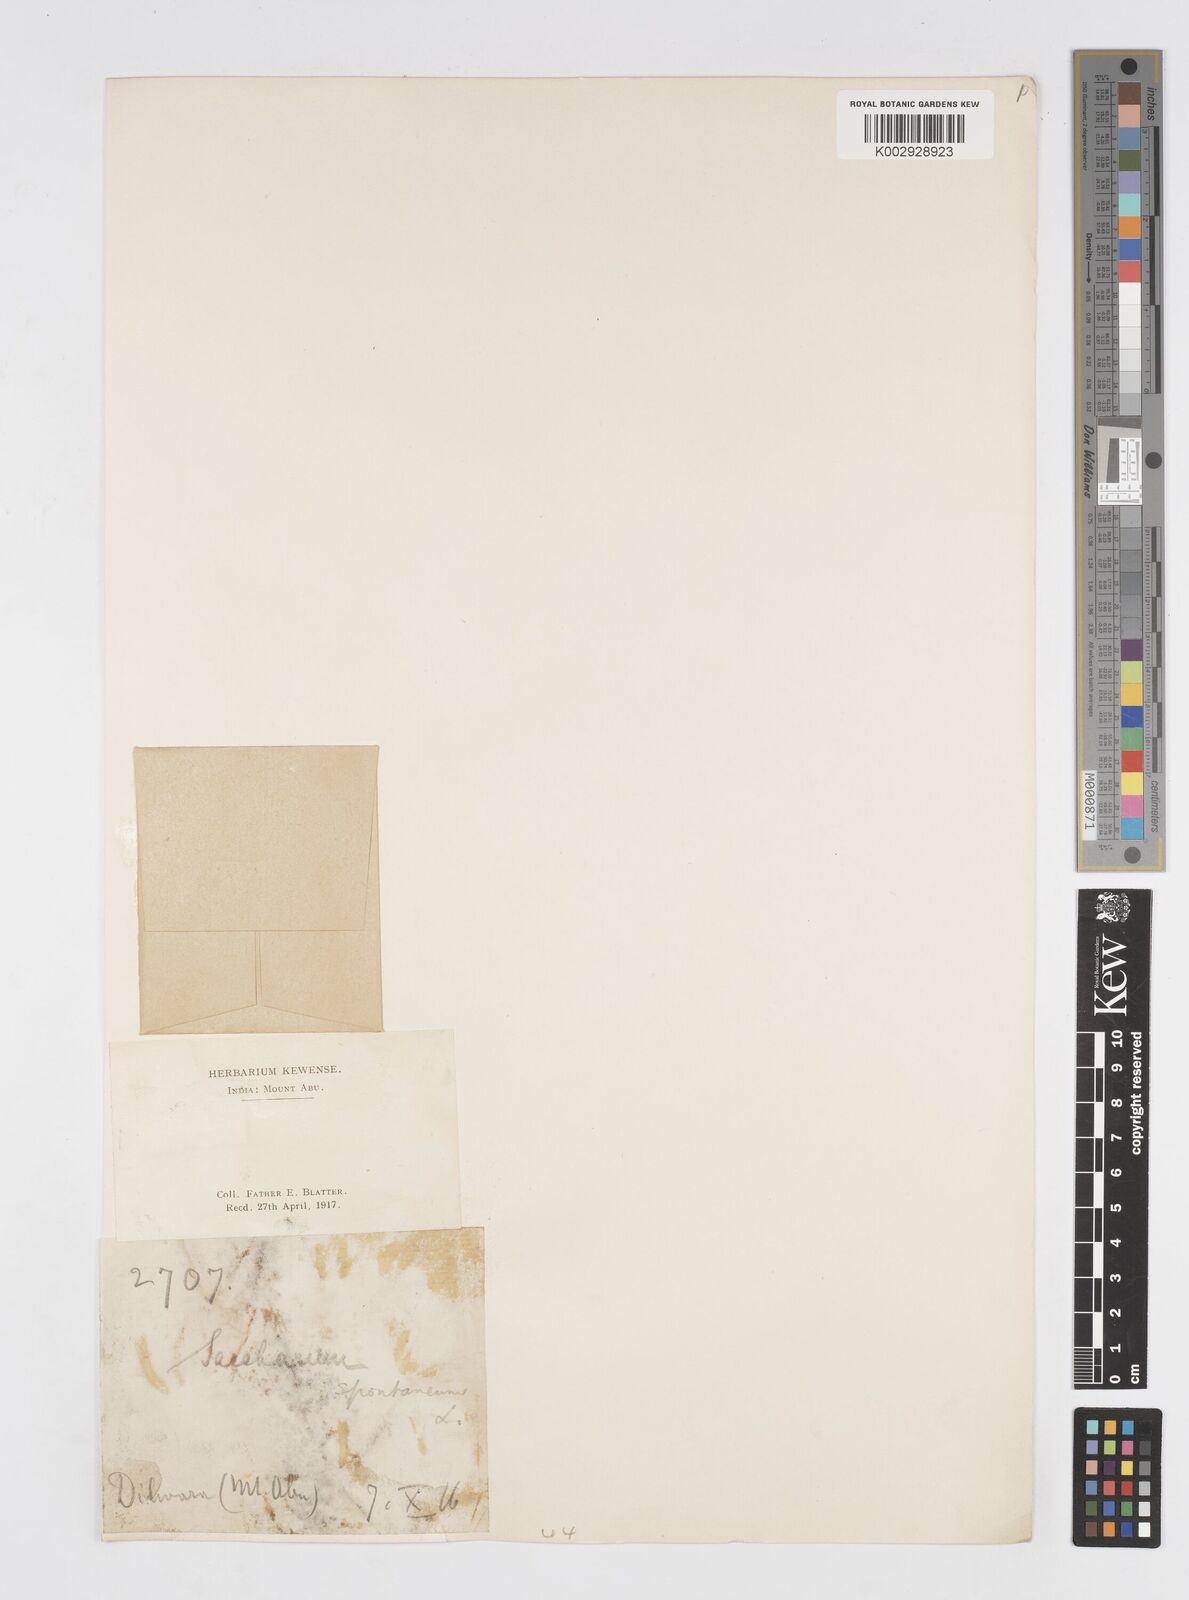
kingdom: Plantae
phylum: Tracheophyta
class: Liliopsida
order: Poales
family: Poaceae
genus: Saccharum
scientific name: Saccharum spontaneum
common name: Wild sugarcane
